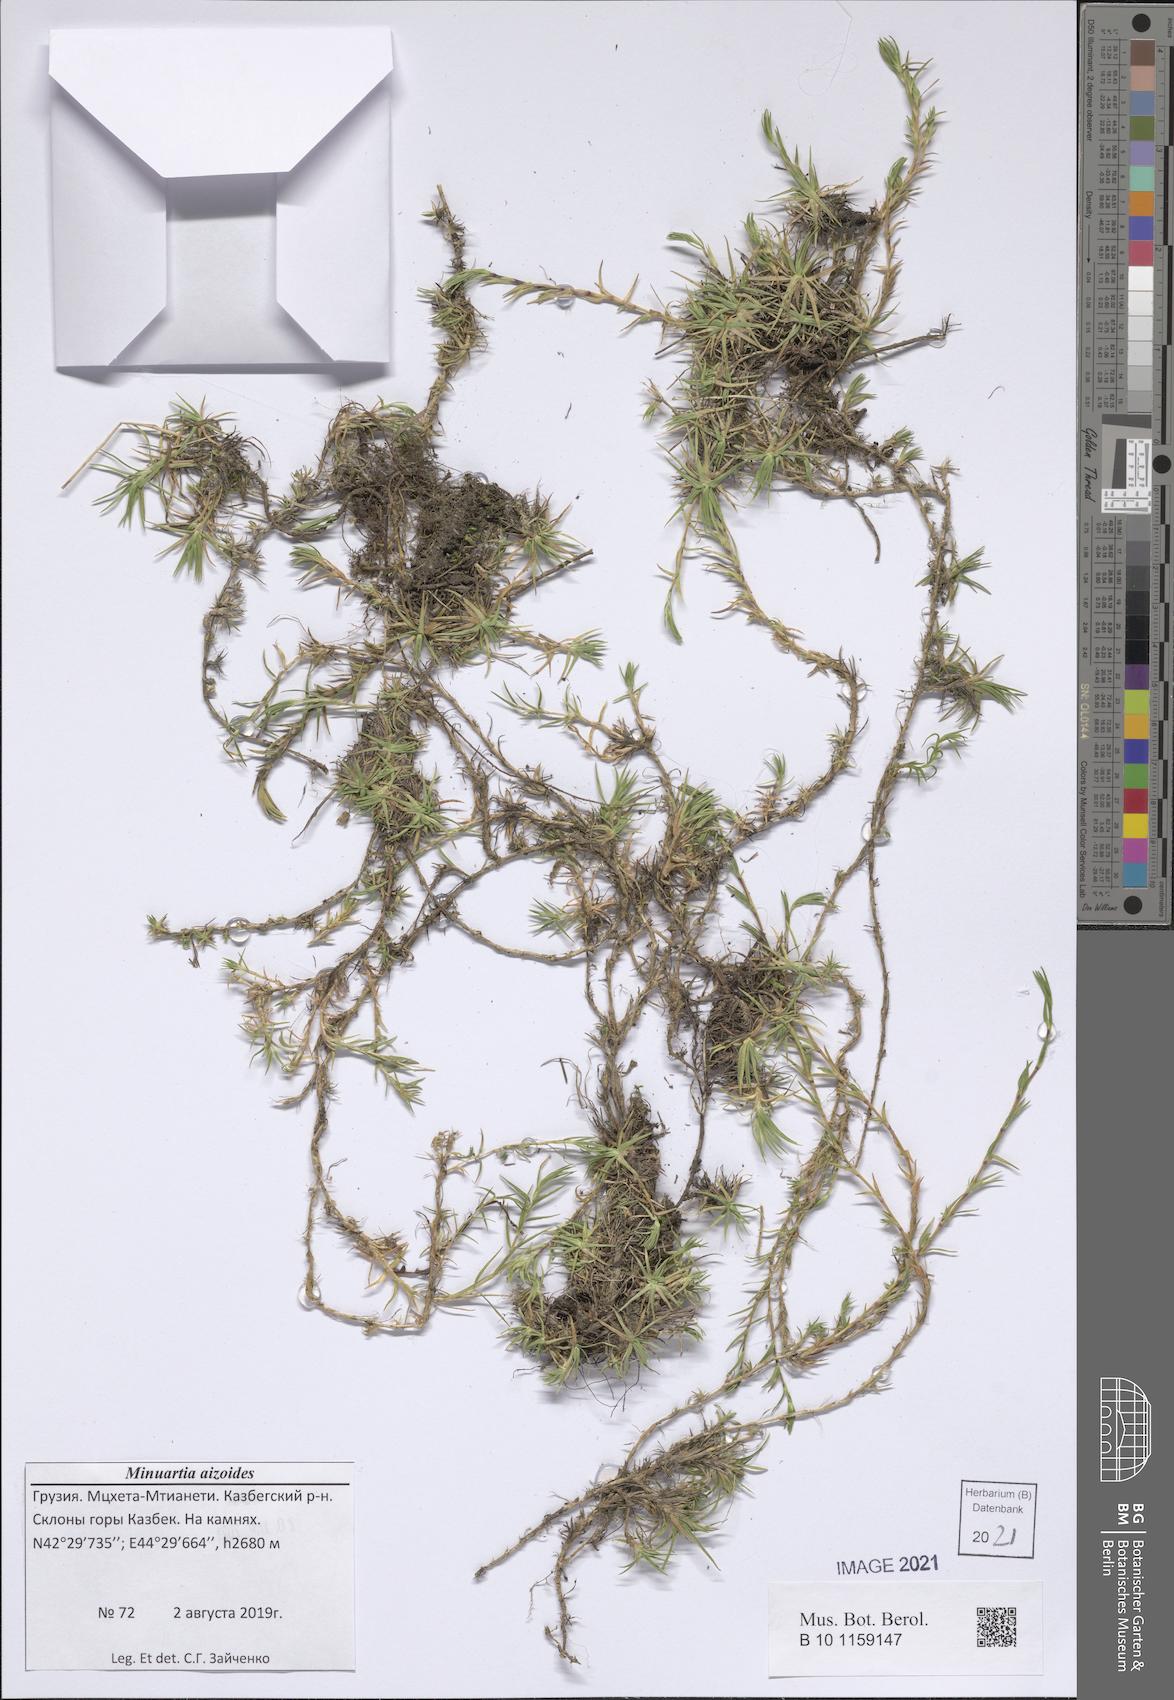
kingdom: Plantae
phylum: Tracheophyta
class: Magnoliopsida
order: Caryophyllales
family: Caryophyllaceae
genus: Pseudocherleria
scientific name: Pseudocherleria aizoides
